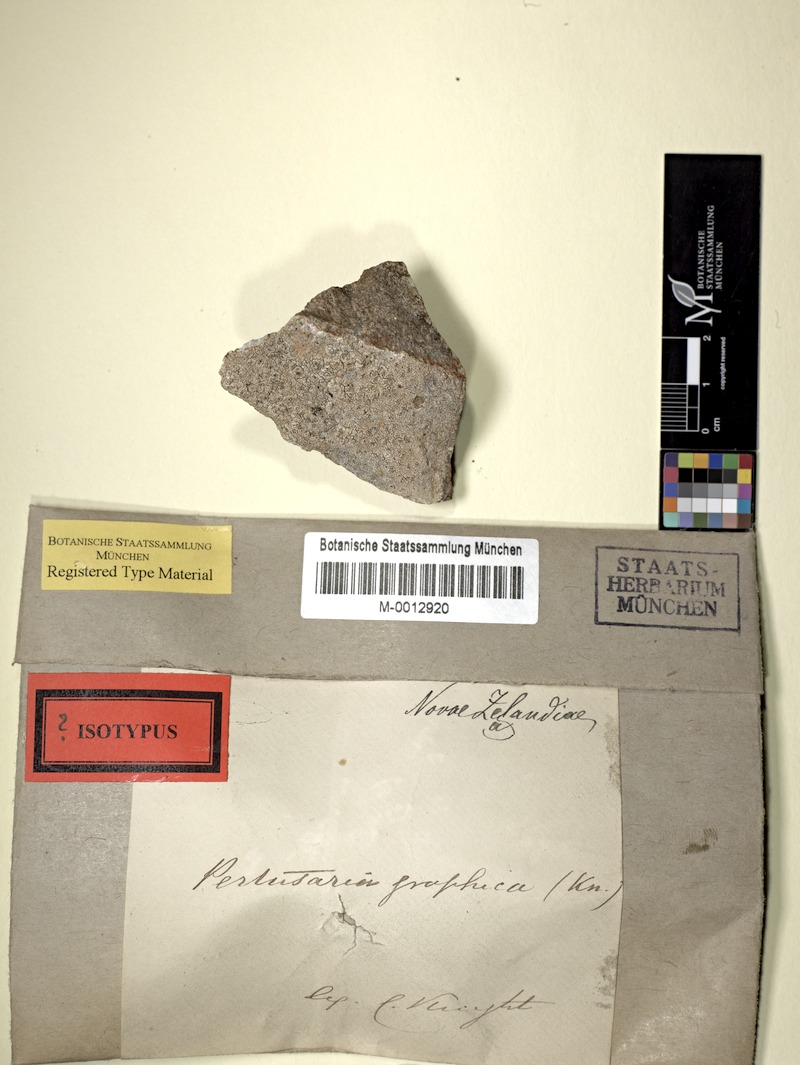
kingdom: Fungi
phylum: Ascomycota
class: Lecanoromycetes
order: Pertusariales
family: Pertusariaceae
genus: Pertusaria
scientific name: Pertusaria graphica
